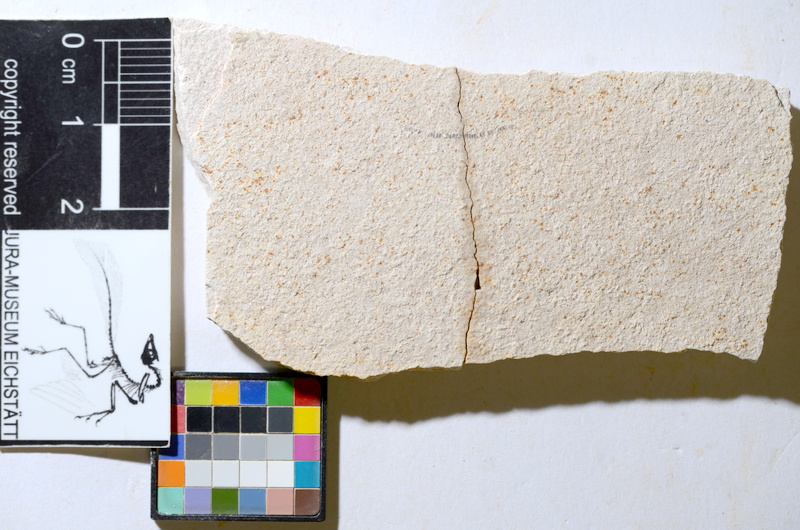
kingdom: Animalia
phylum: Chordata
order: Salmoniformes
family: Orthogonikleithridae
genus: Orthogonikleithrus
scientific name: Orthogonikleithrus hoelli
